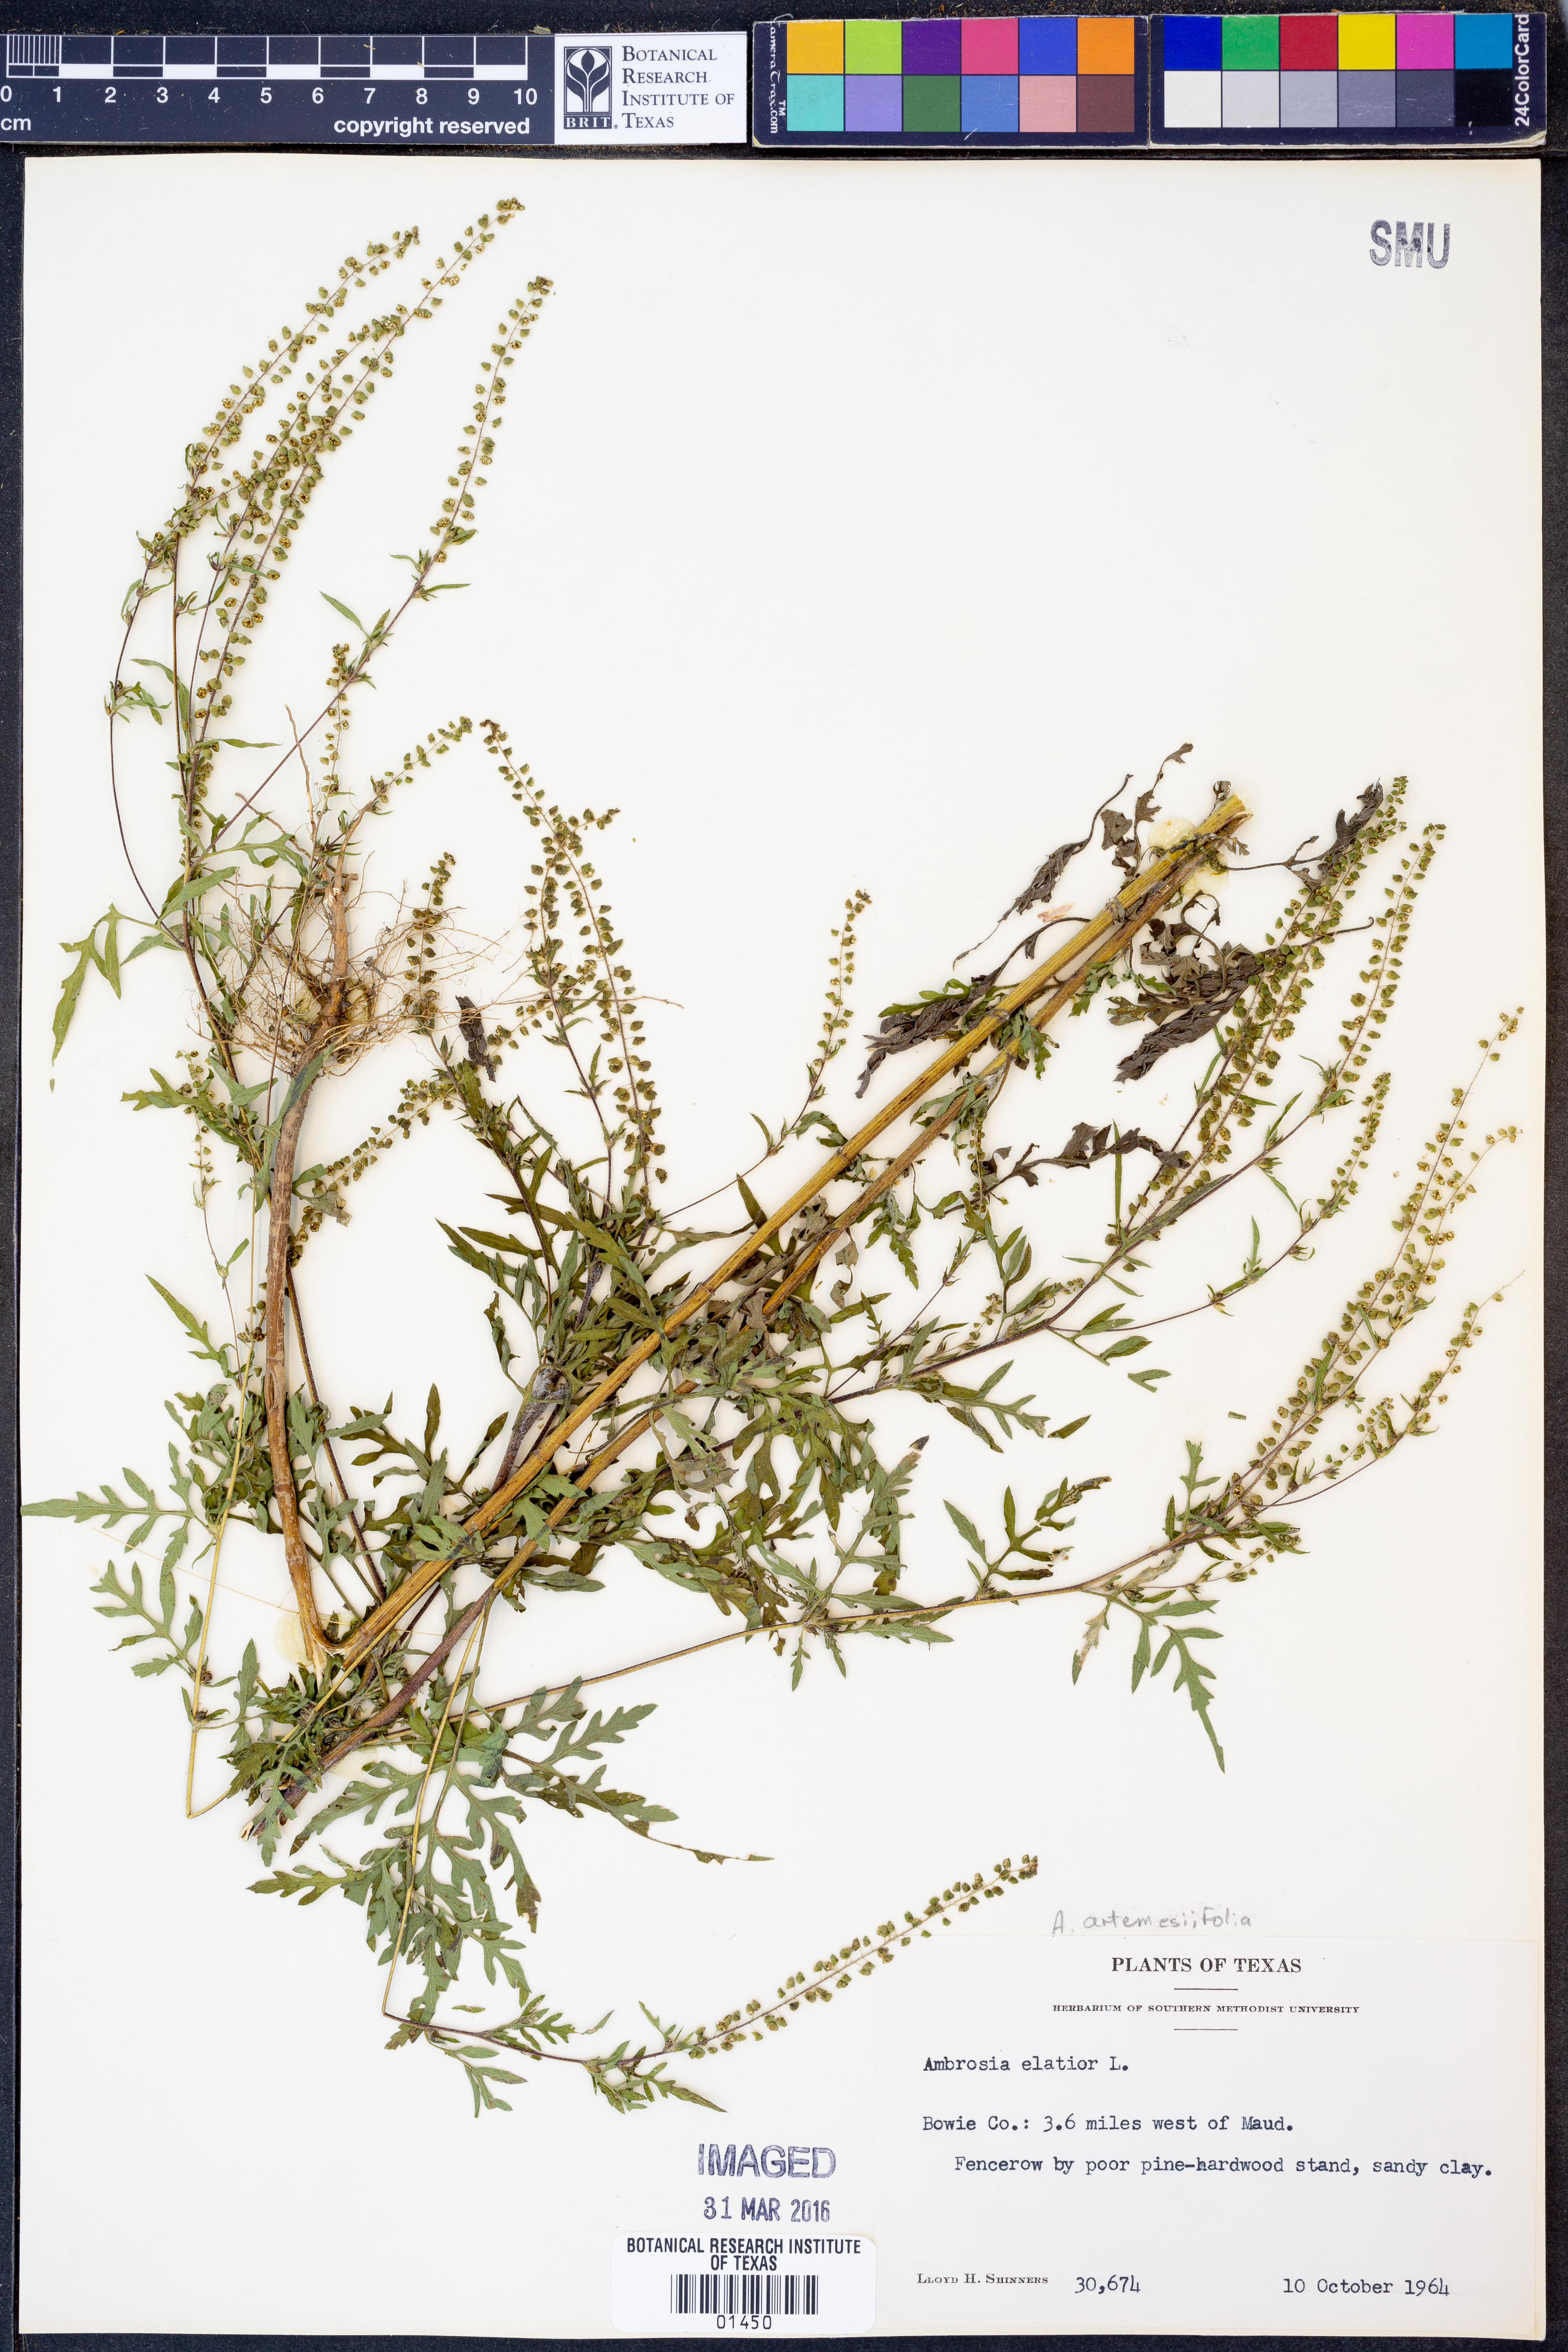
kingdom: Plantae
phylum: Tracheophyta
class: Magnoliopsida
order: Asterales
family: Asteraceae
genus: Ambrosia
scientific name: Ambrosia artemisiifolia
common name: Annual ragweed
